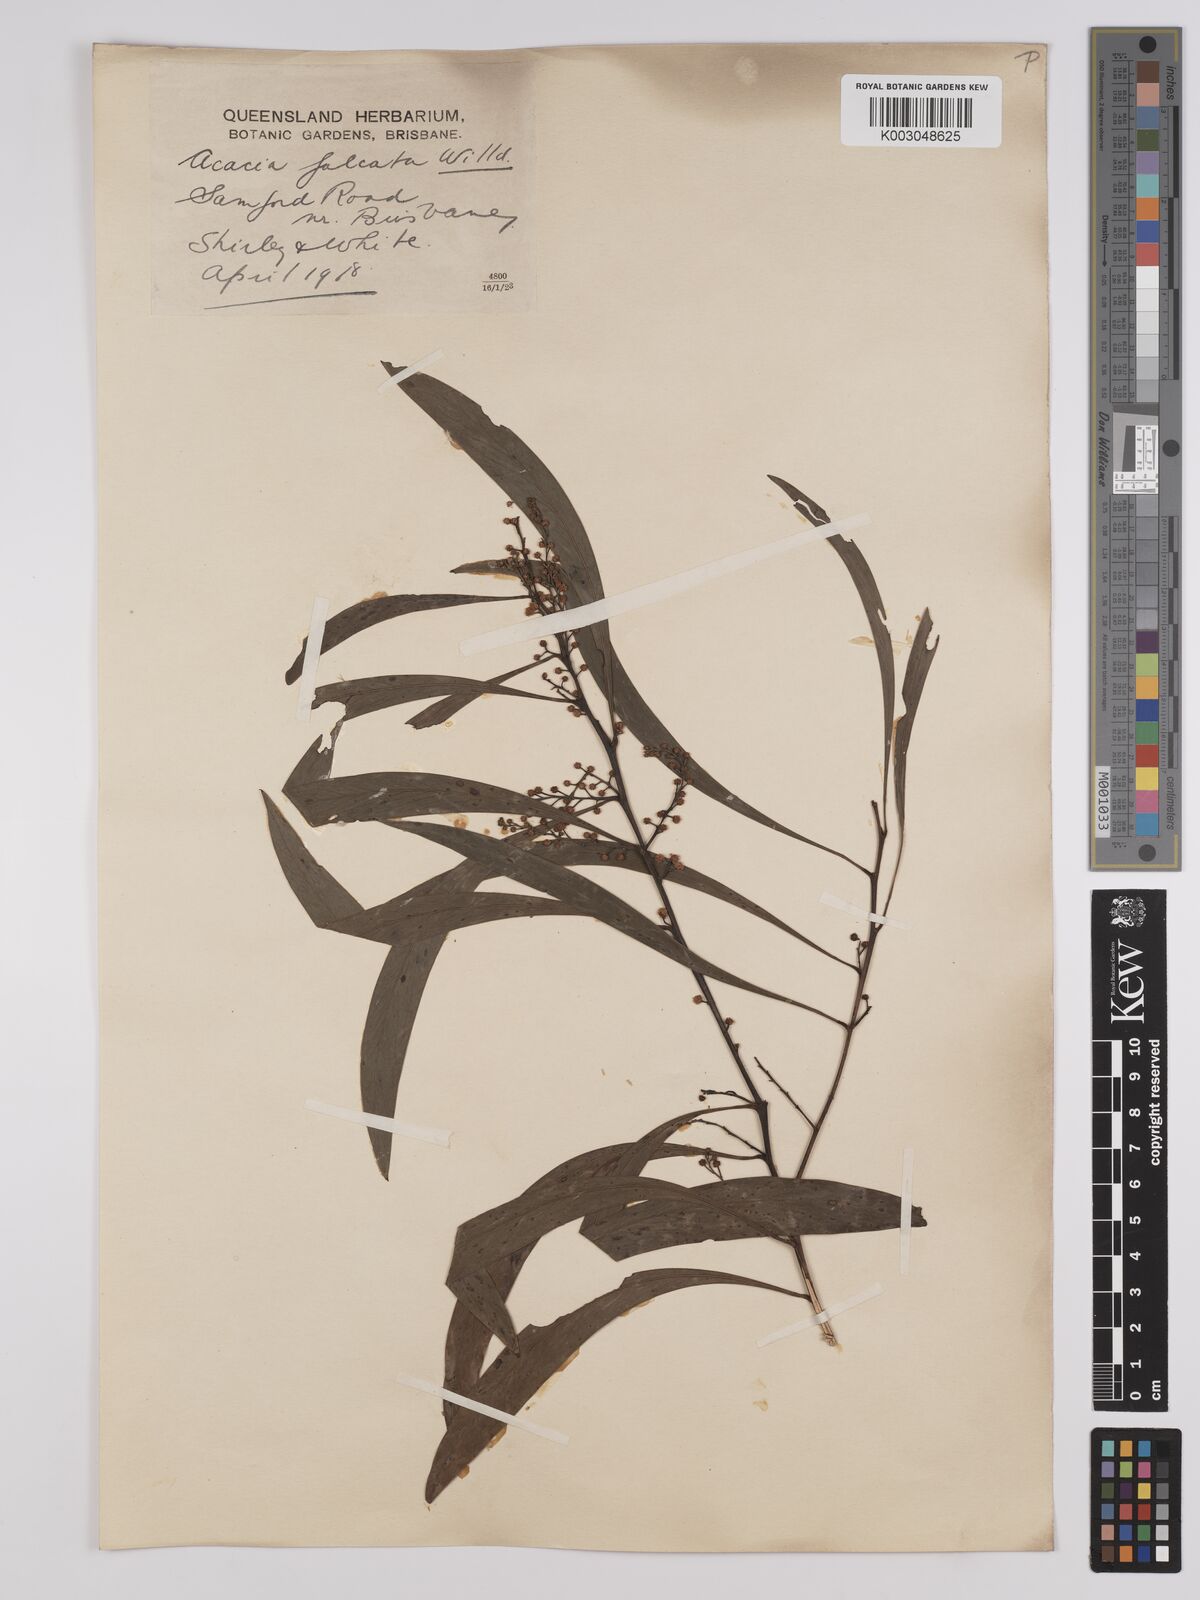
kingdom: Plantae
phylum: Tracheophyta
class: Magnoliopsida
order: Fabales
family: Fabaceae
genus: Acacia
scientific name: Acacia falcata
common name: Burra acacia
